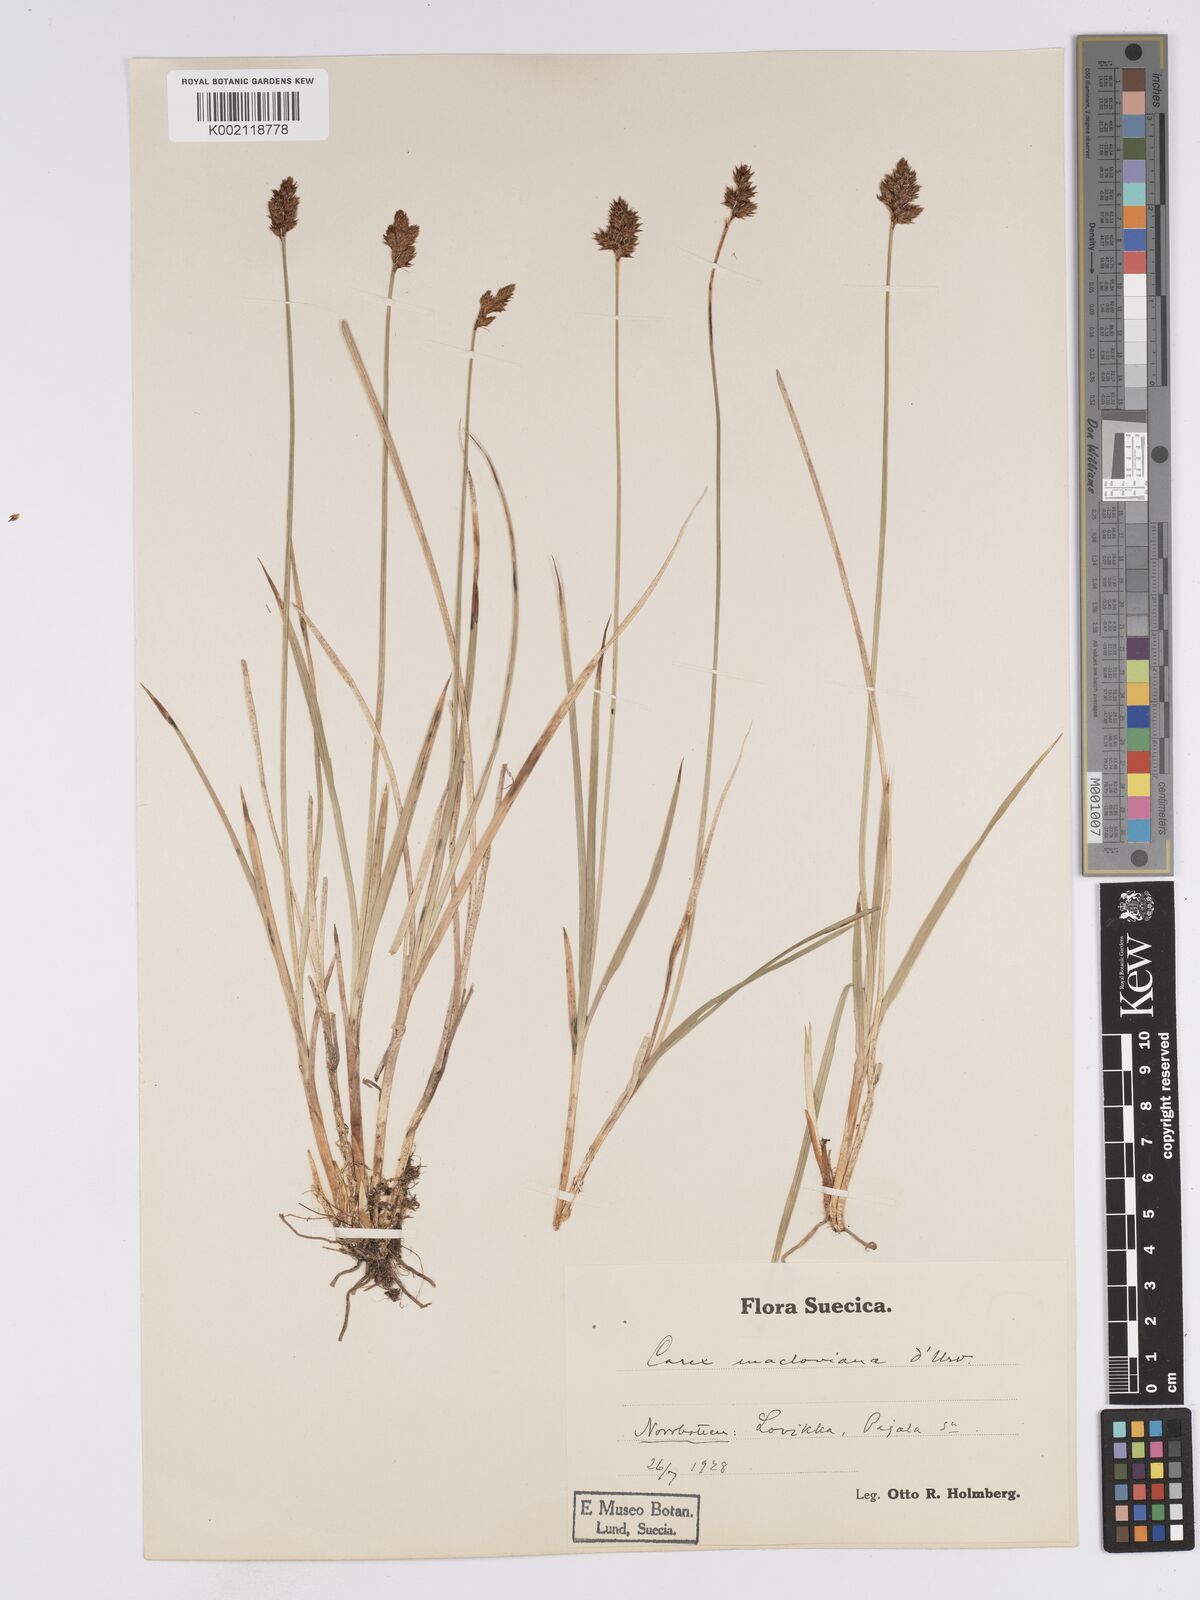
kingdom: Plantae
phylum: Tracheophyta
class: Liliopsida
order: Poales
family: Cyperaceae
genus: Carex
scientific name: Carex macloviana
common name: Falkland island sedge
